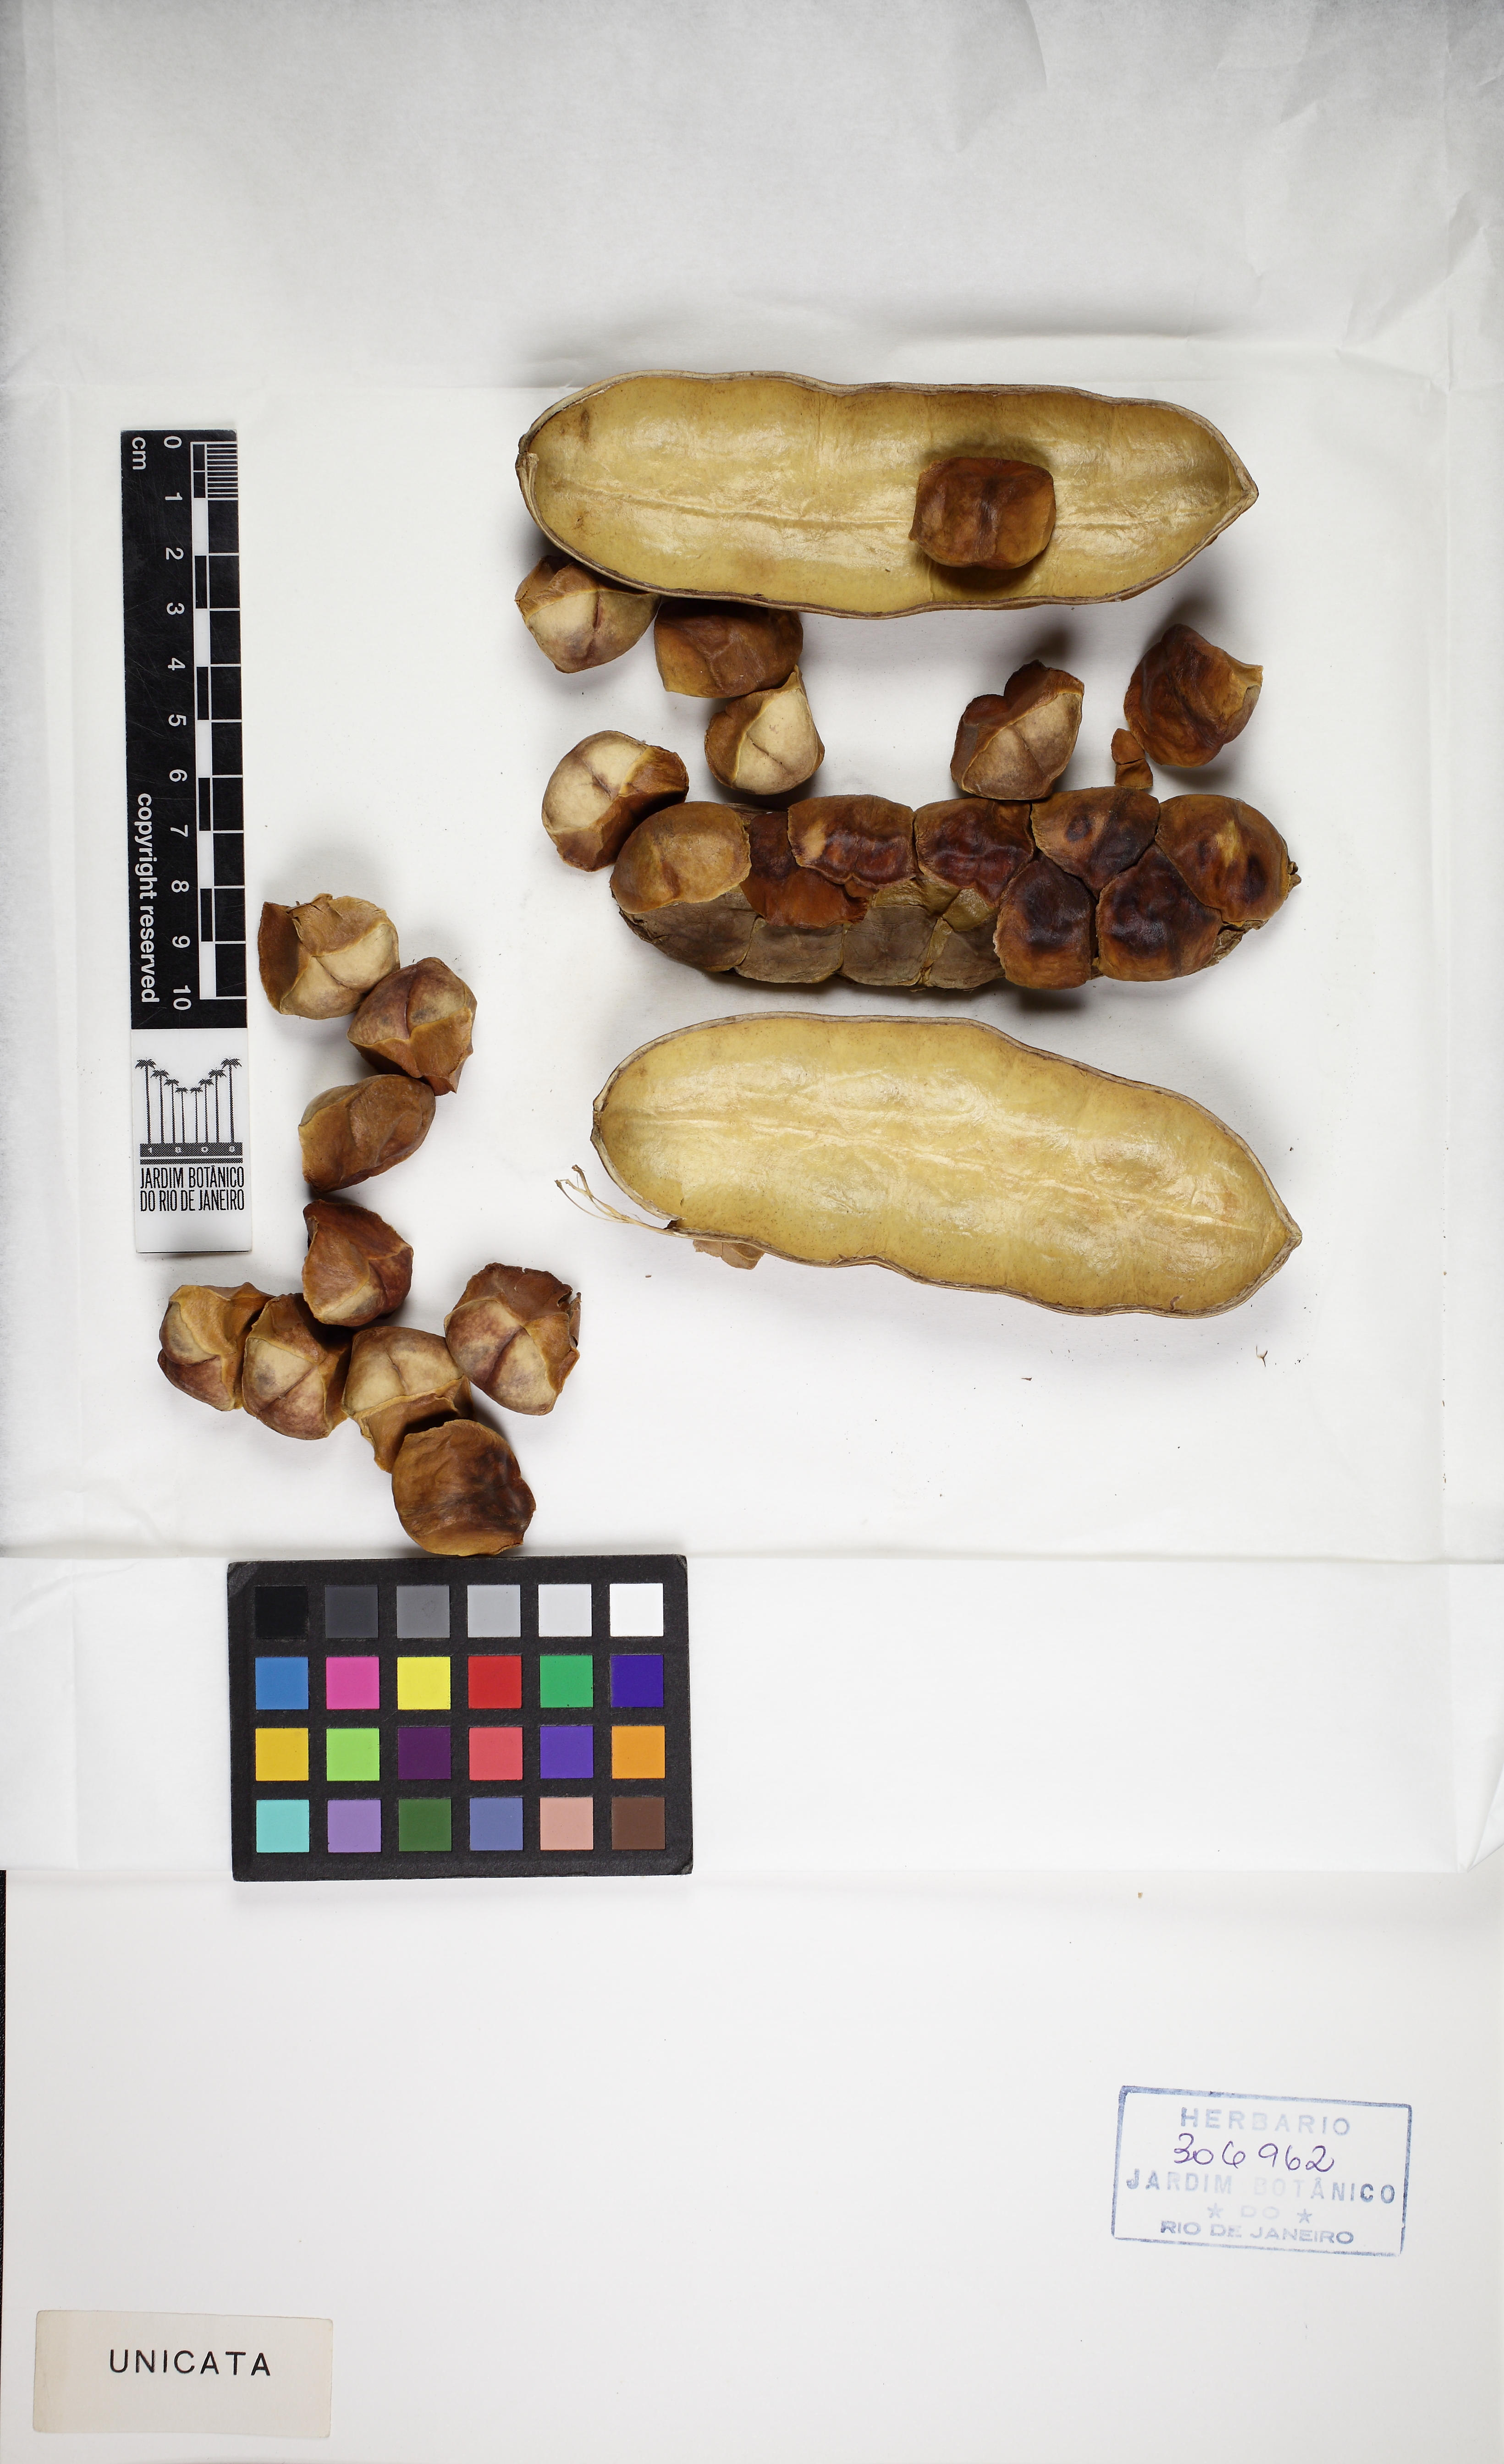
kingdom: Plantae
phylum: Tracheophyta
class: Magnoliopsida
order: Lamiales
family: Bignoniaceae
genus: Adenocalymma
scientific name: Adenocalymma ternatum
